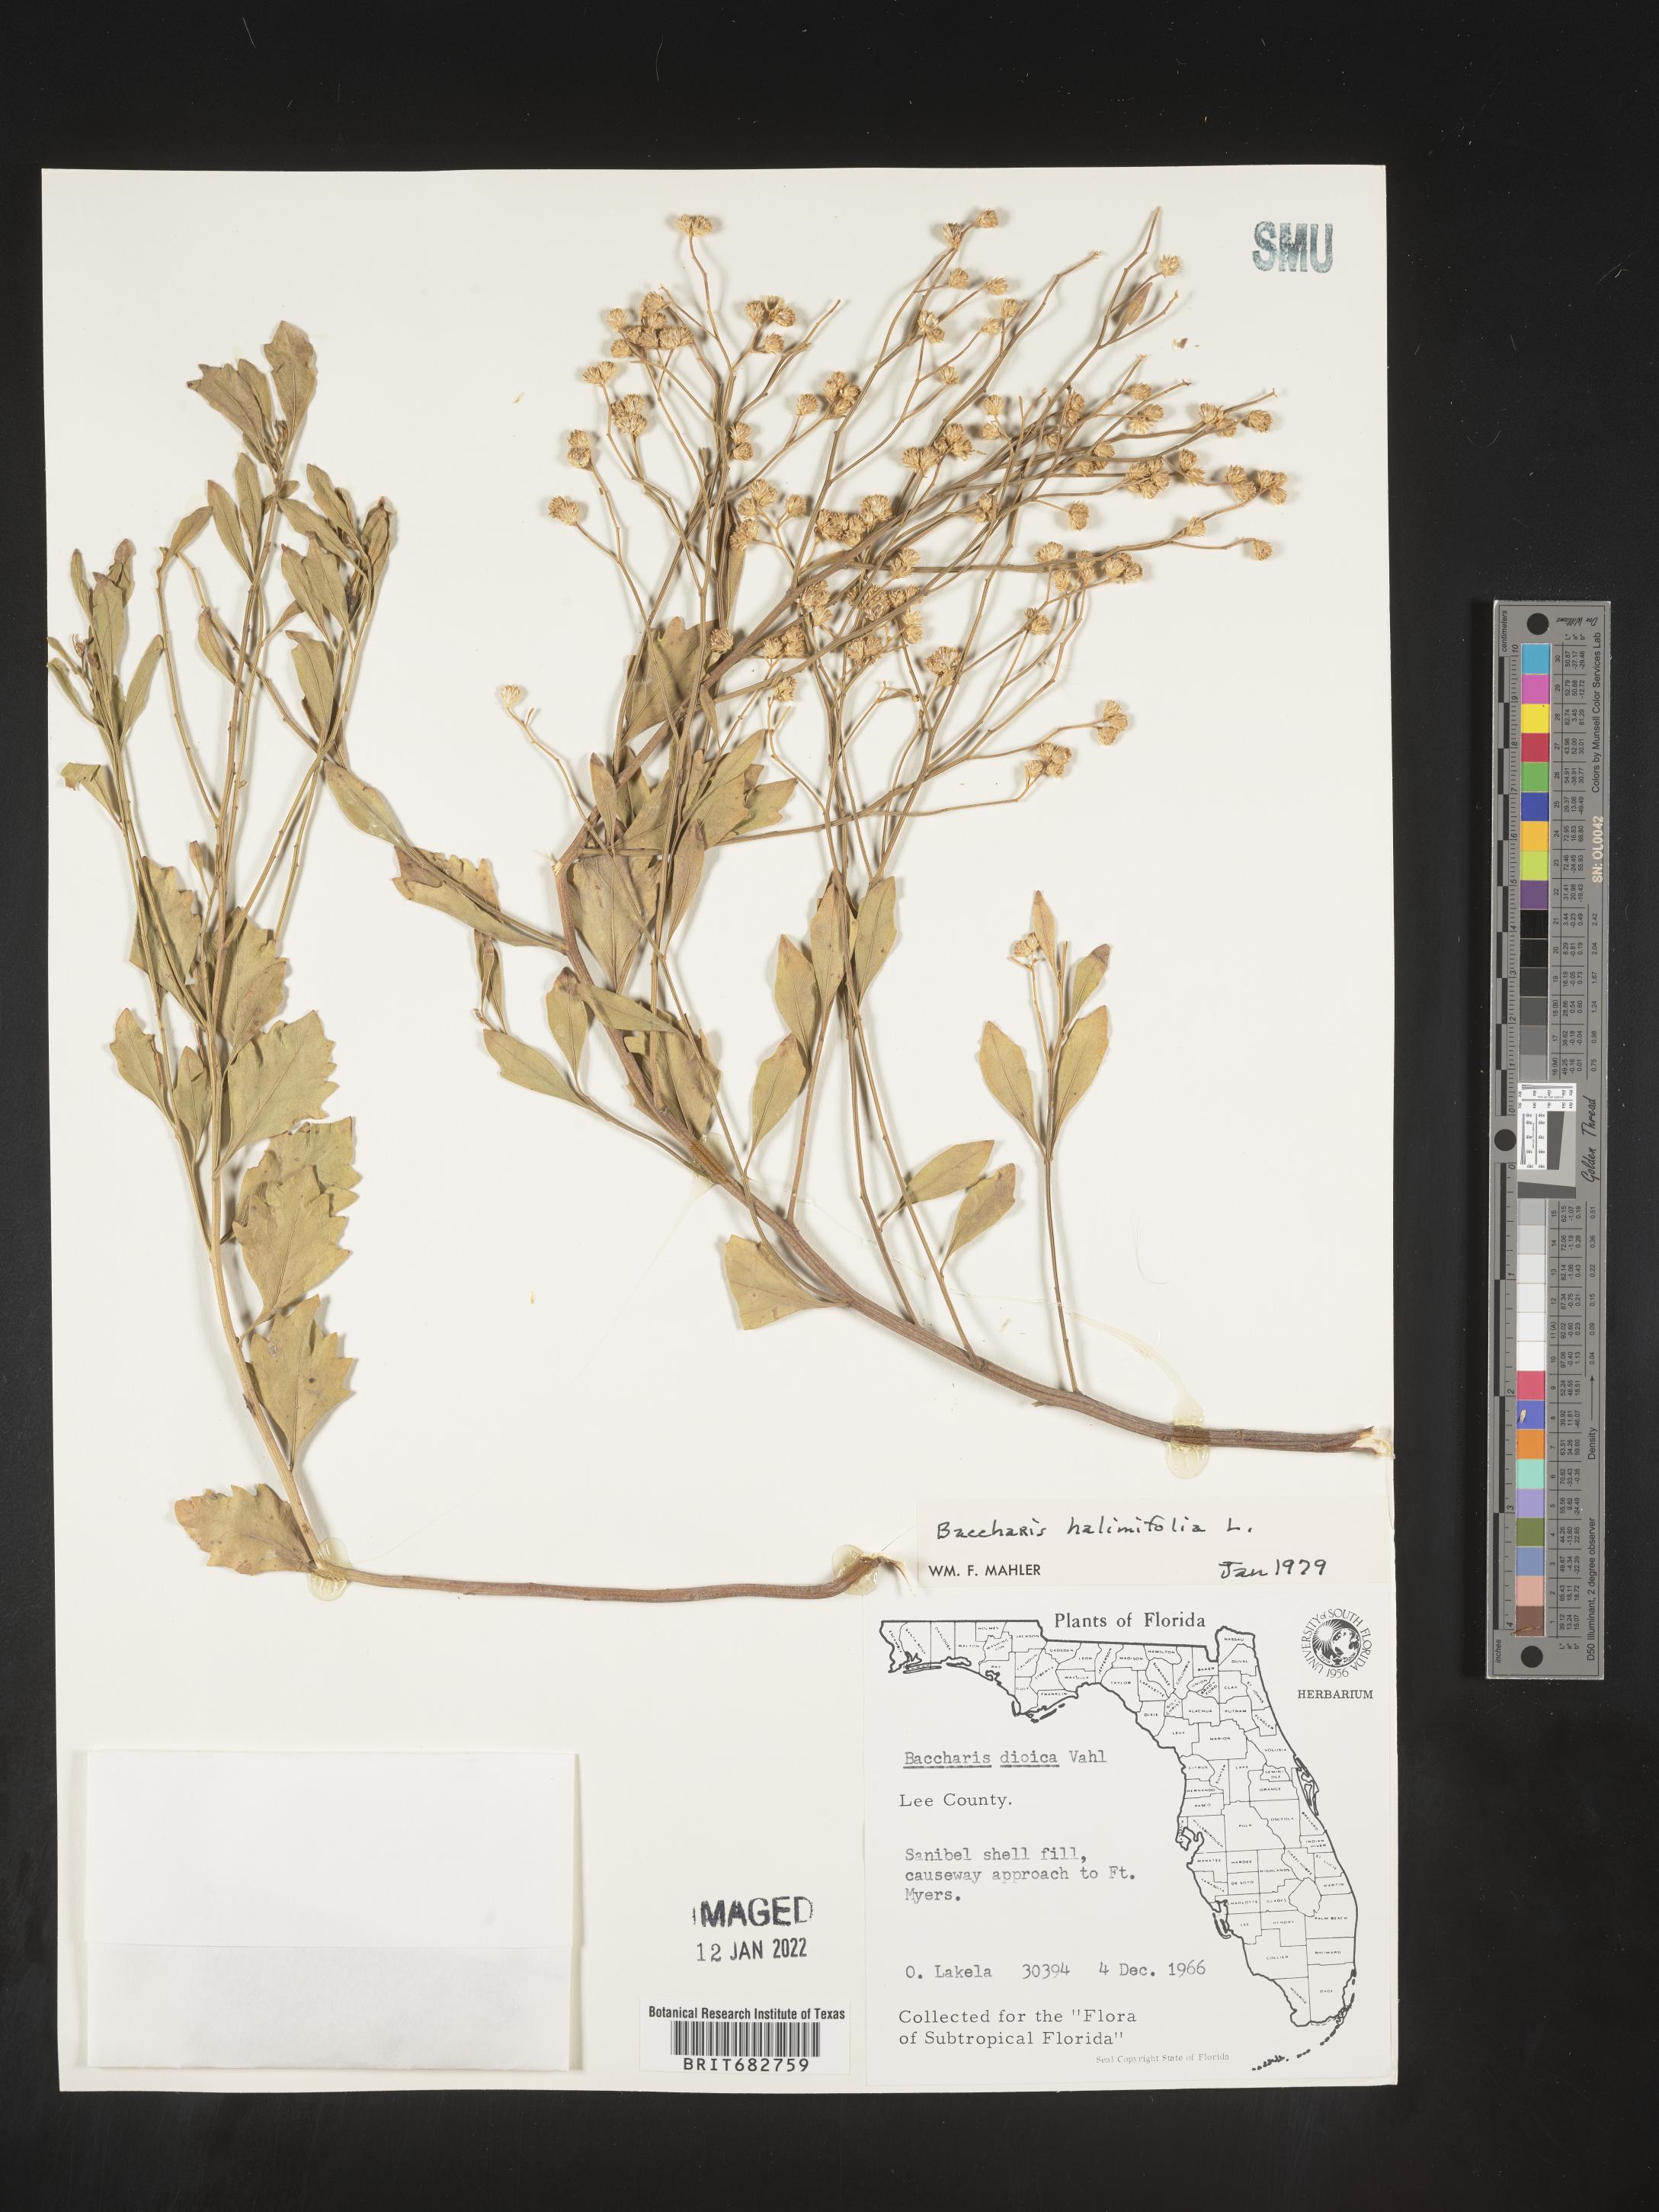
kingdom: Plantae
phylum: Tracheophyta
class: Magnoliopsida
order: Asterales
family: Asteraceae
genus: Nidorella
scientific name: Nidorella ivifolia
